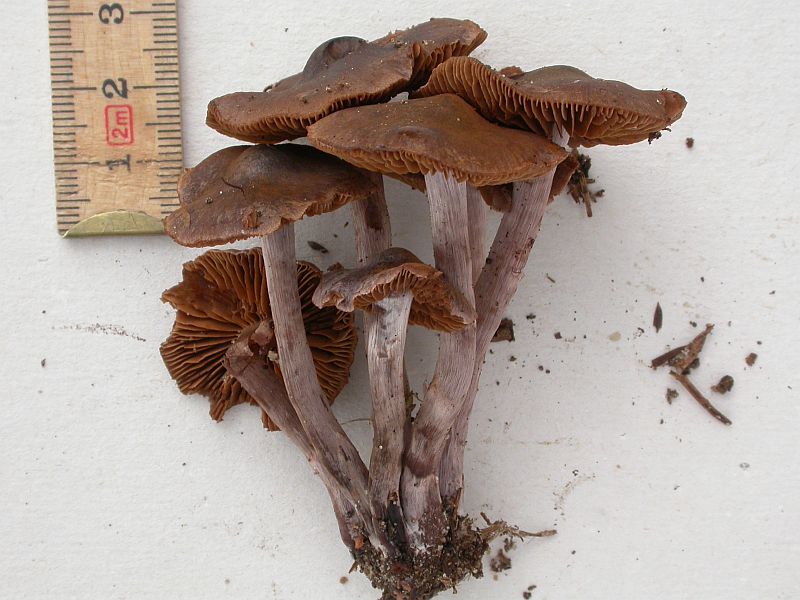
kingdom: Fungi
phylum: Basidiomycota
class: Agaricomycetes
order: Agaricales
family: Cortinariaceae
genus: Cortinarius
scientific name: Cortinarius vernus
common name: sommer-slørhat
